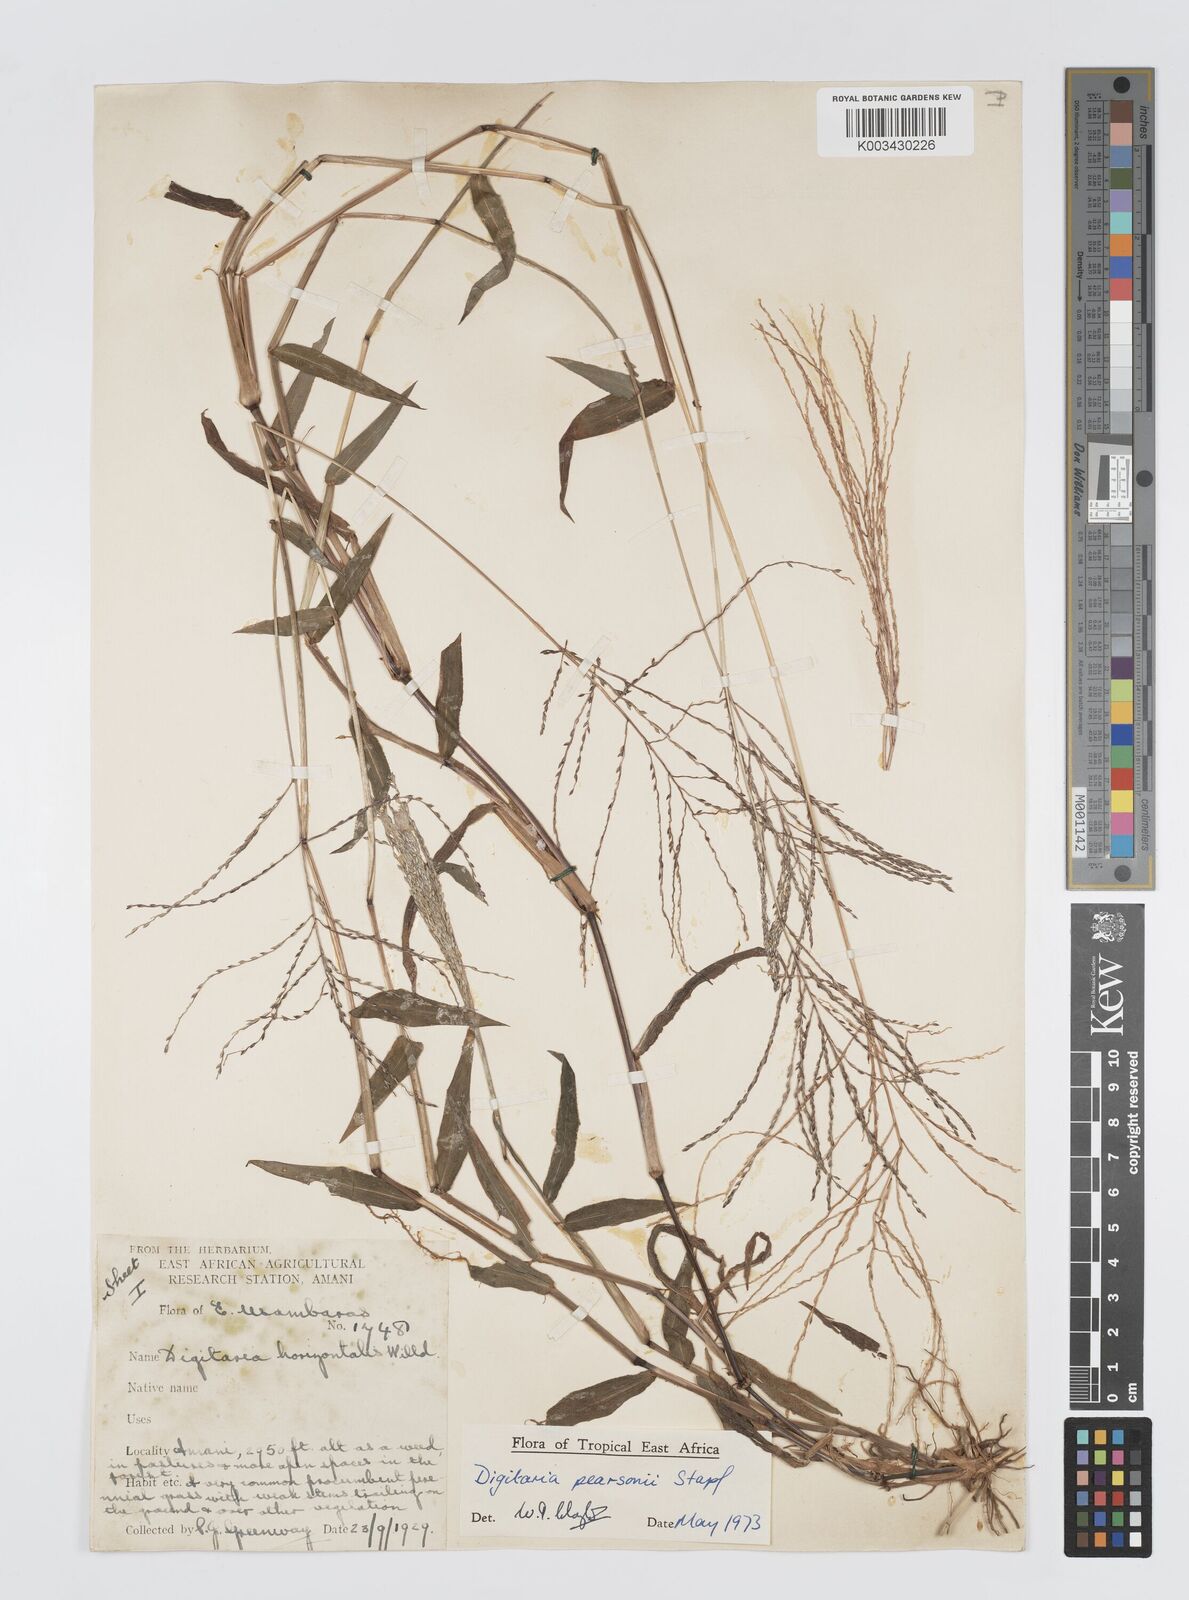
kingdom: Plantae
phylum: Tracheophyta
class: Liliopsida
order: Poales
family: Poaceae
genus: Digitaria
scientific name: Digitaria pearsonii
